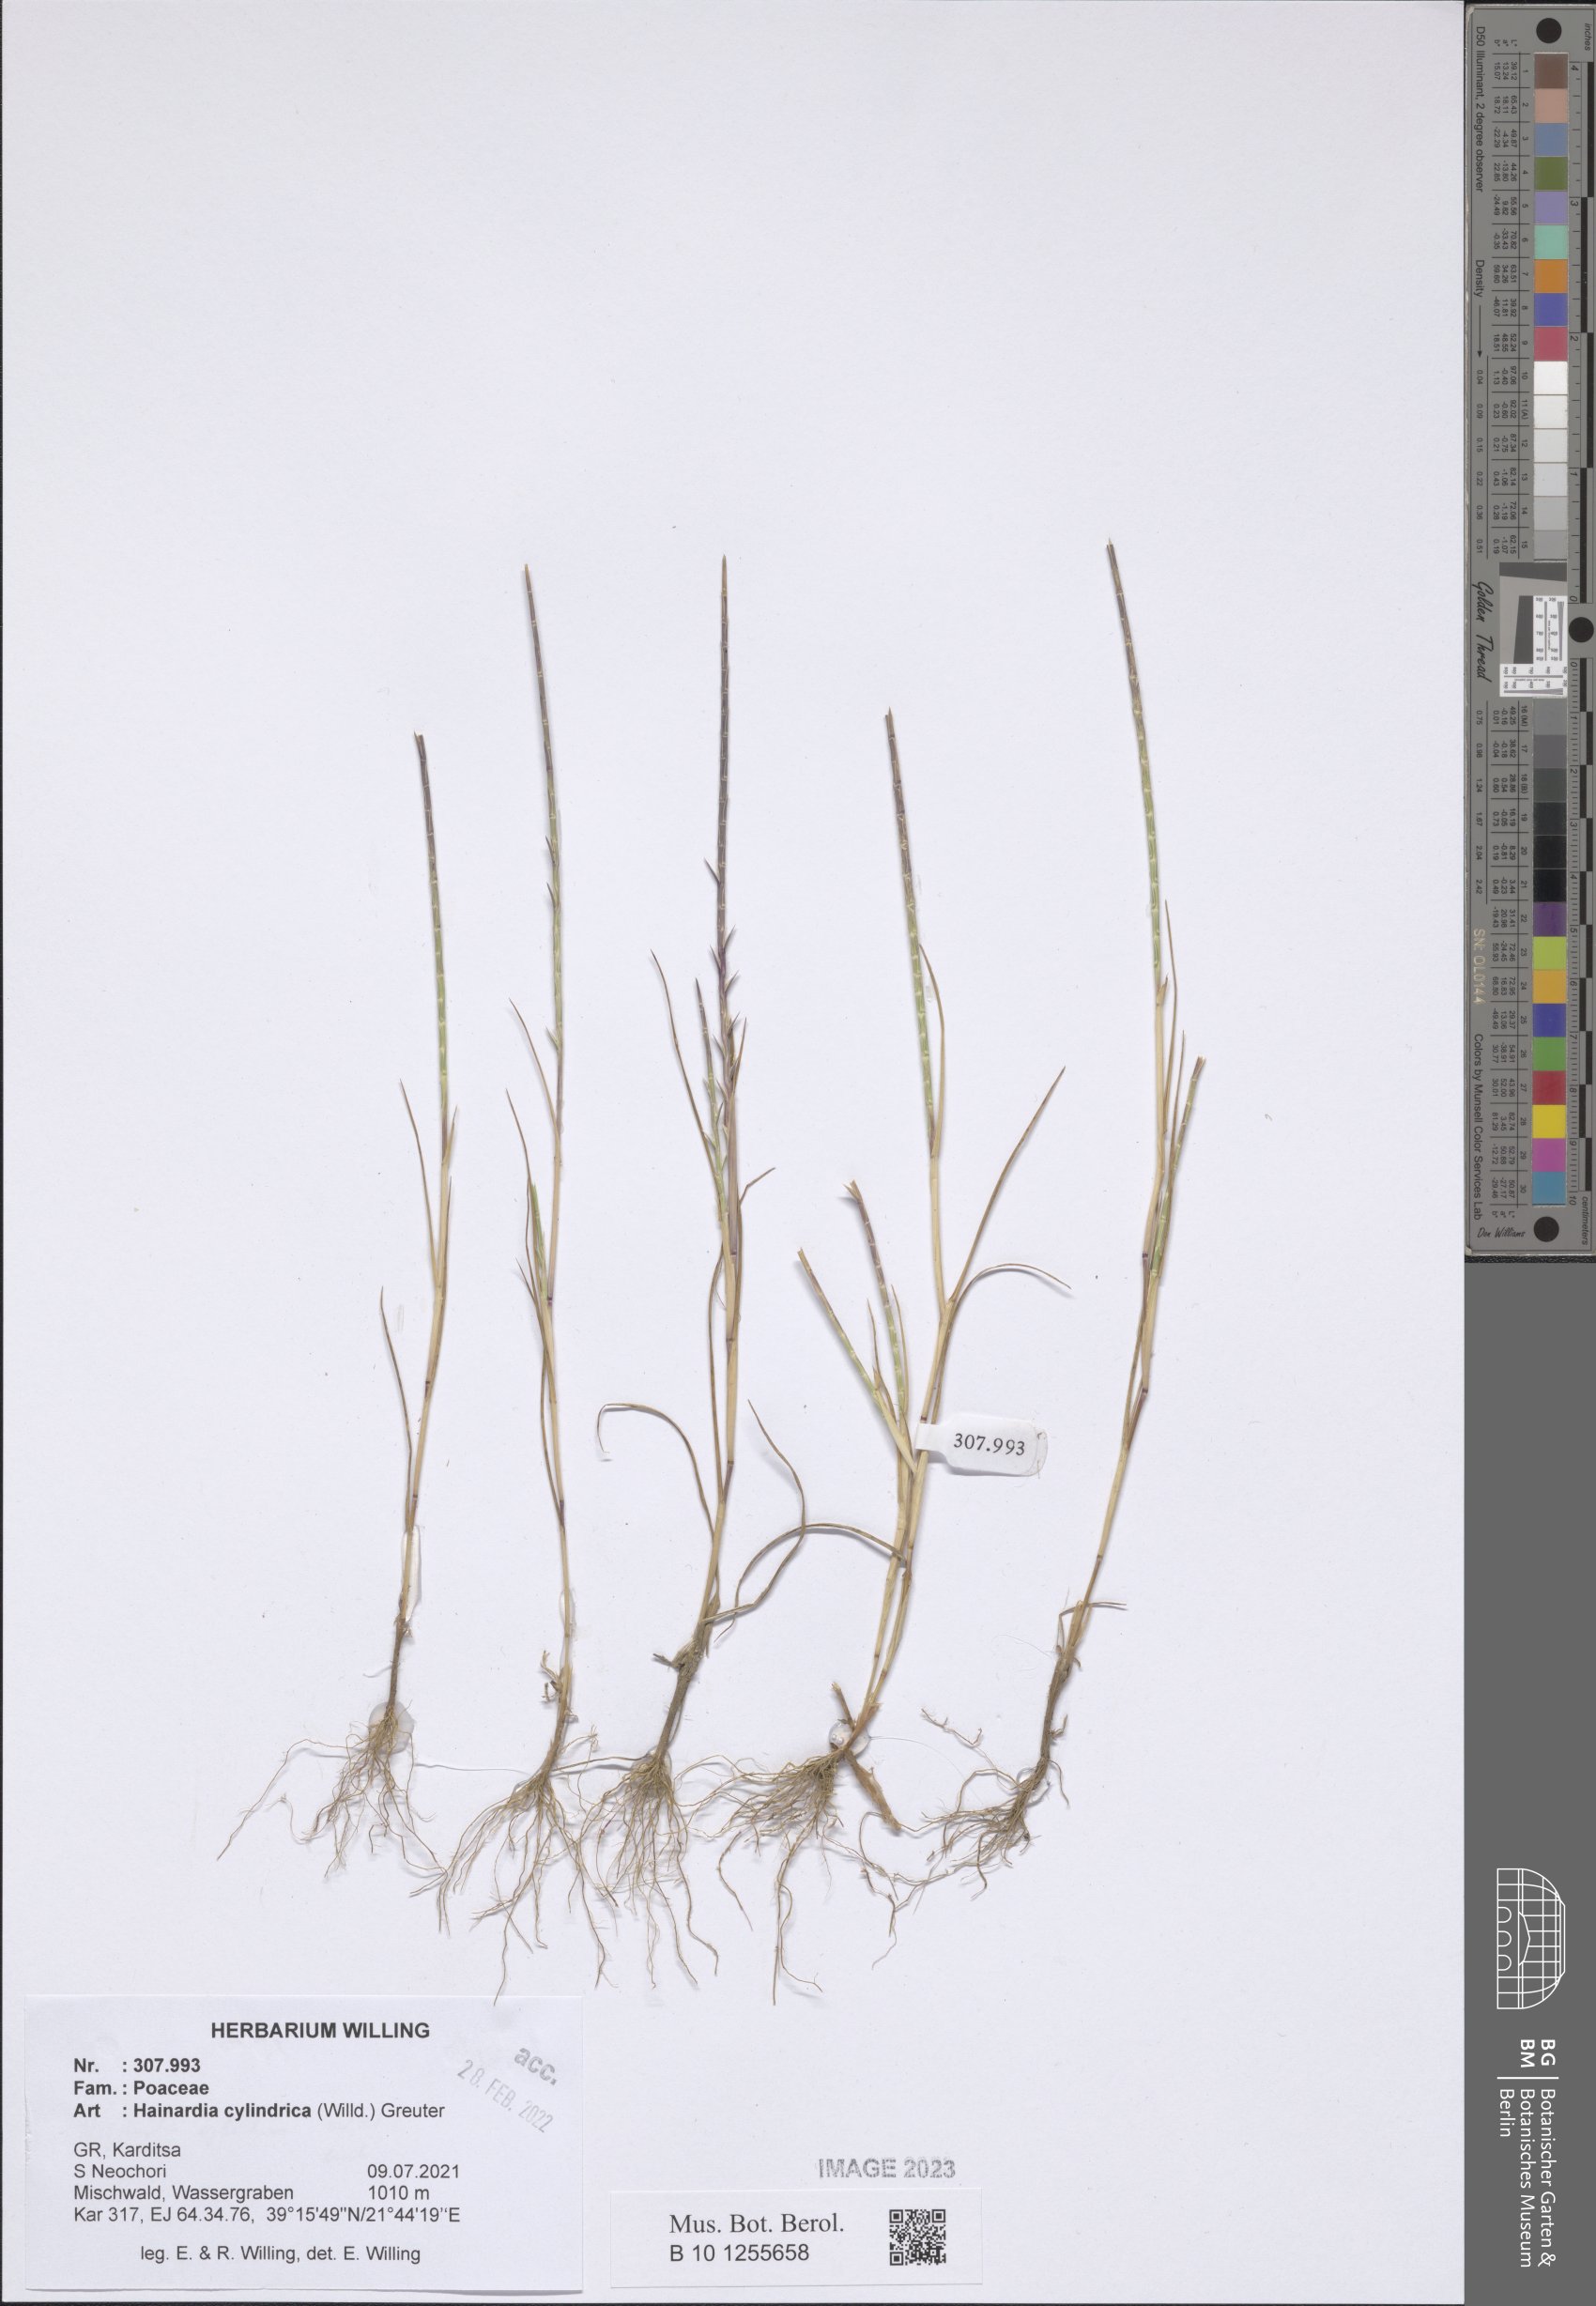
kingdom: Plantae
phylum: Tracheophyta
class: Liliopsida
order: Poales
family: Poaceae
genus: Parapholis
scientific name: Parapholis cylindrica
